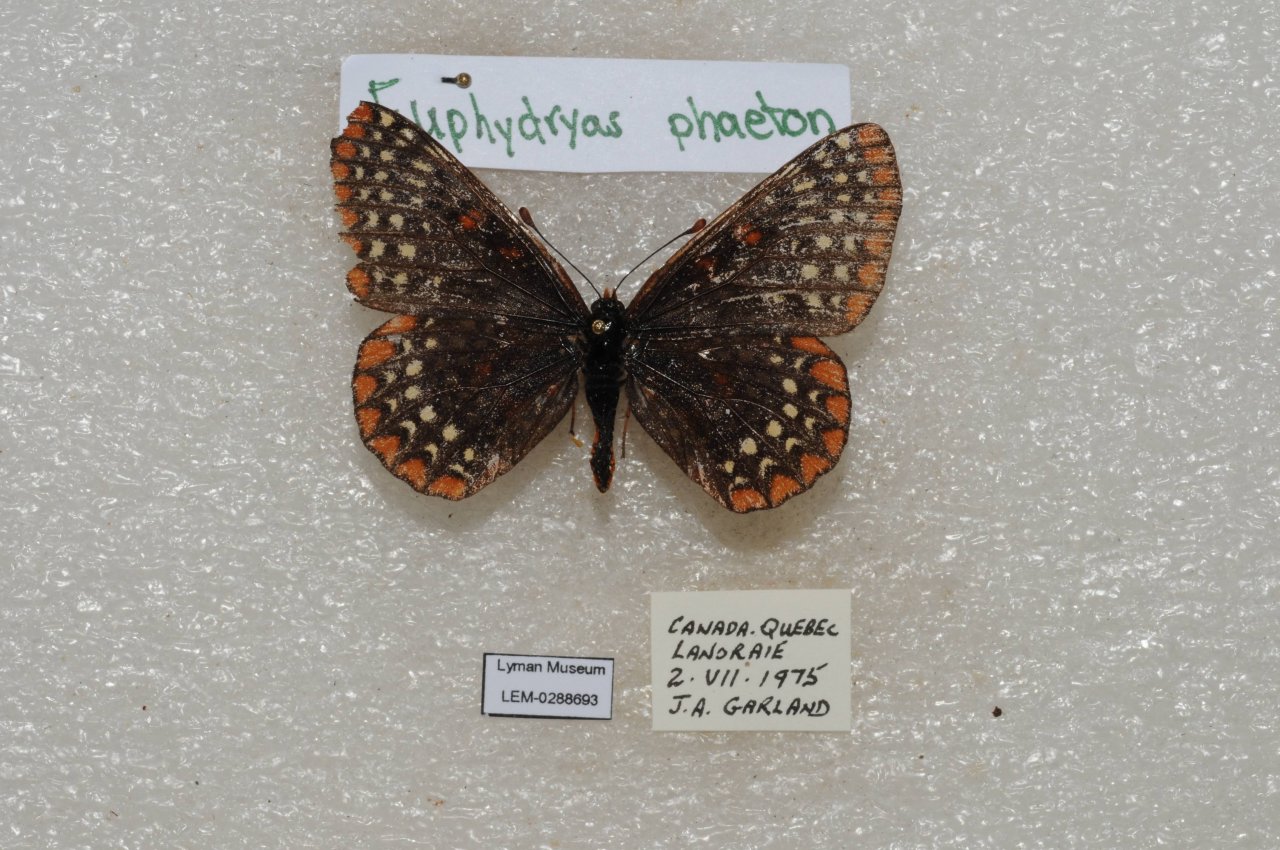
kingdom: Animalia
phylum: Arthropoda
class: Insecta
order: Lepidoptera
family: Nymphalidae
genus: Euphydryas
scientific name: Euphydryas phaeton
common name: Baltimore Checkerspot
